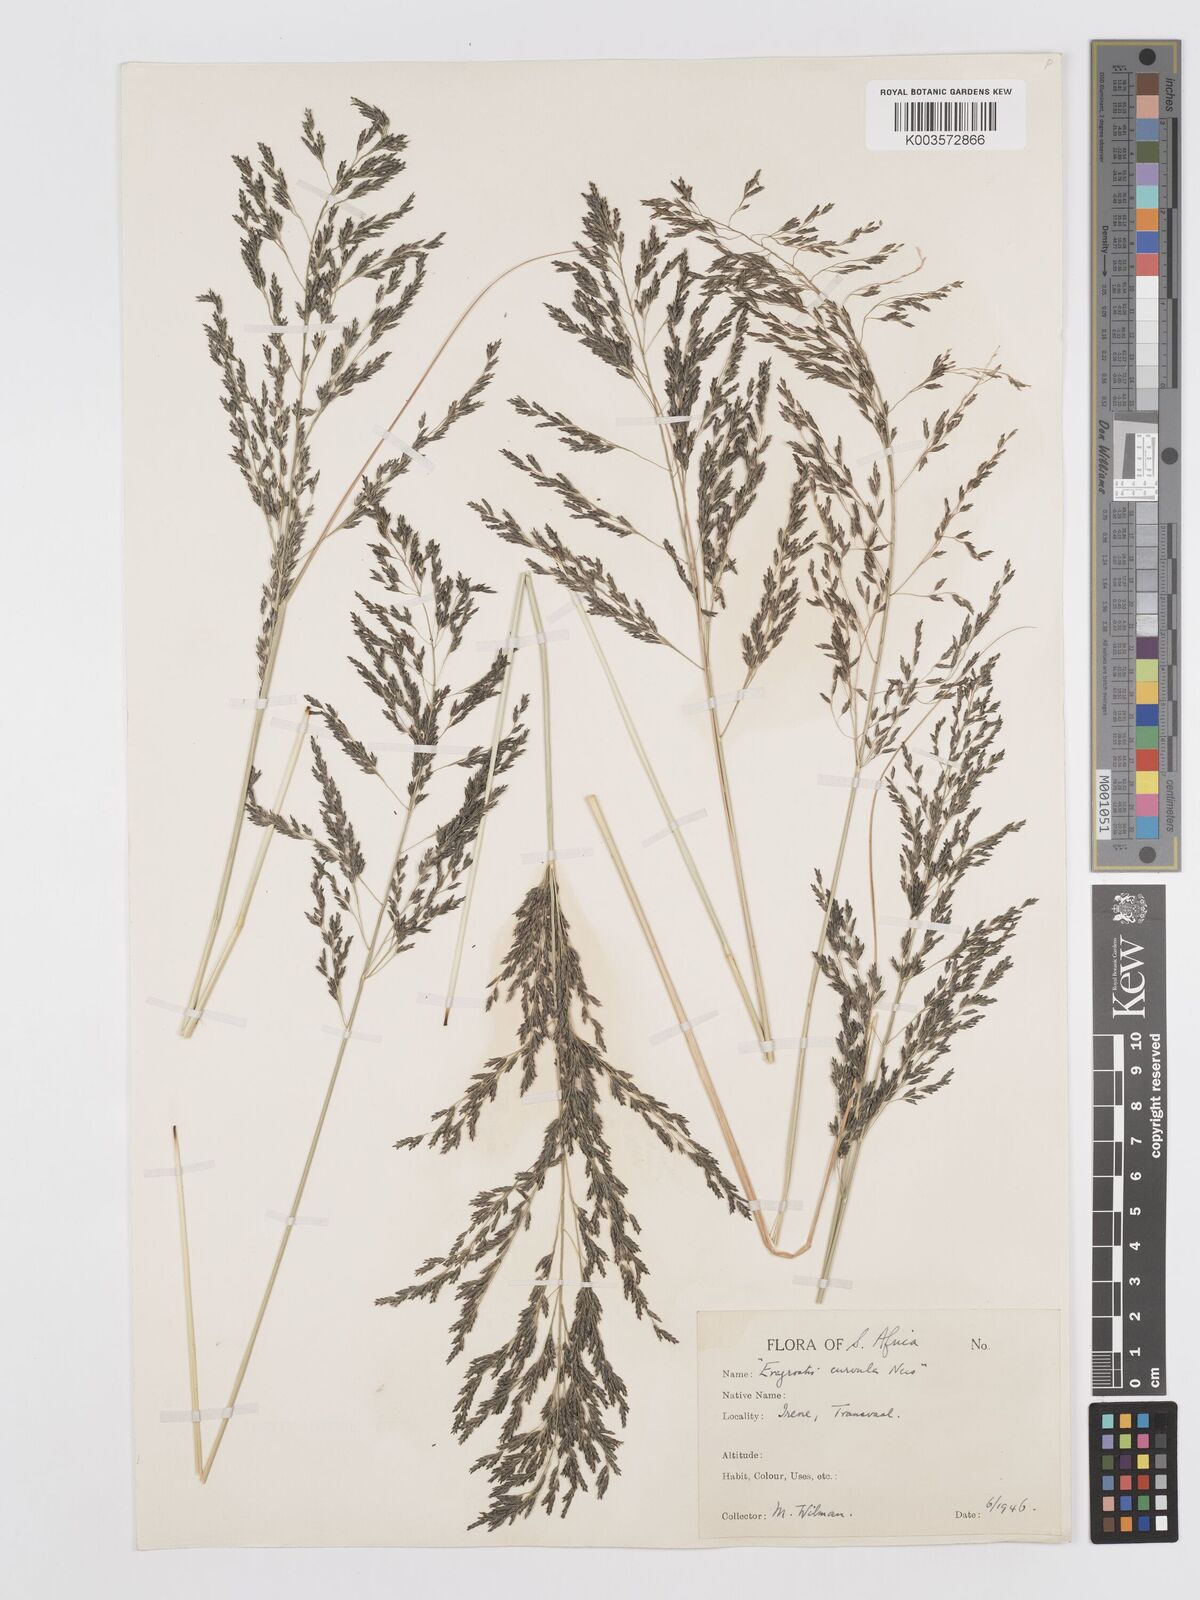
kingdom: Plantae
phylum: Tracheophyta
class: Liliopsida
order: Poales
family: Poaceae
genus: Eragrostis
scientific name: Eragrostis curvula
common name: African love-grass
